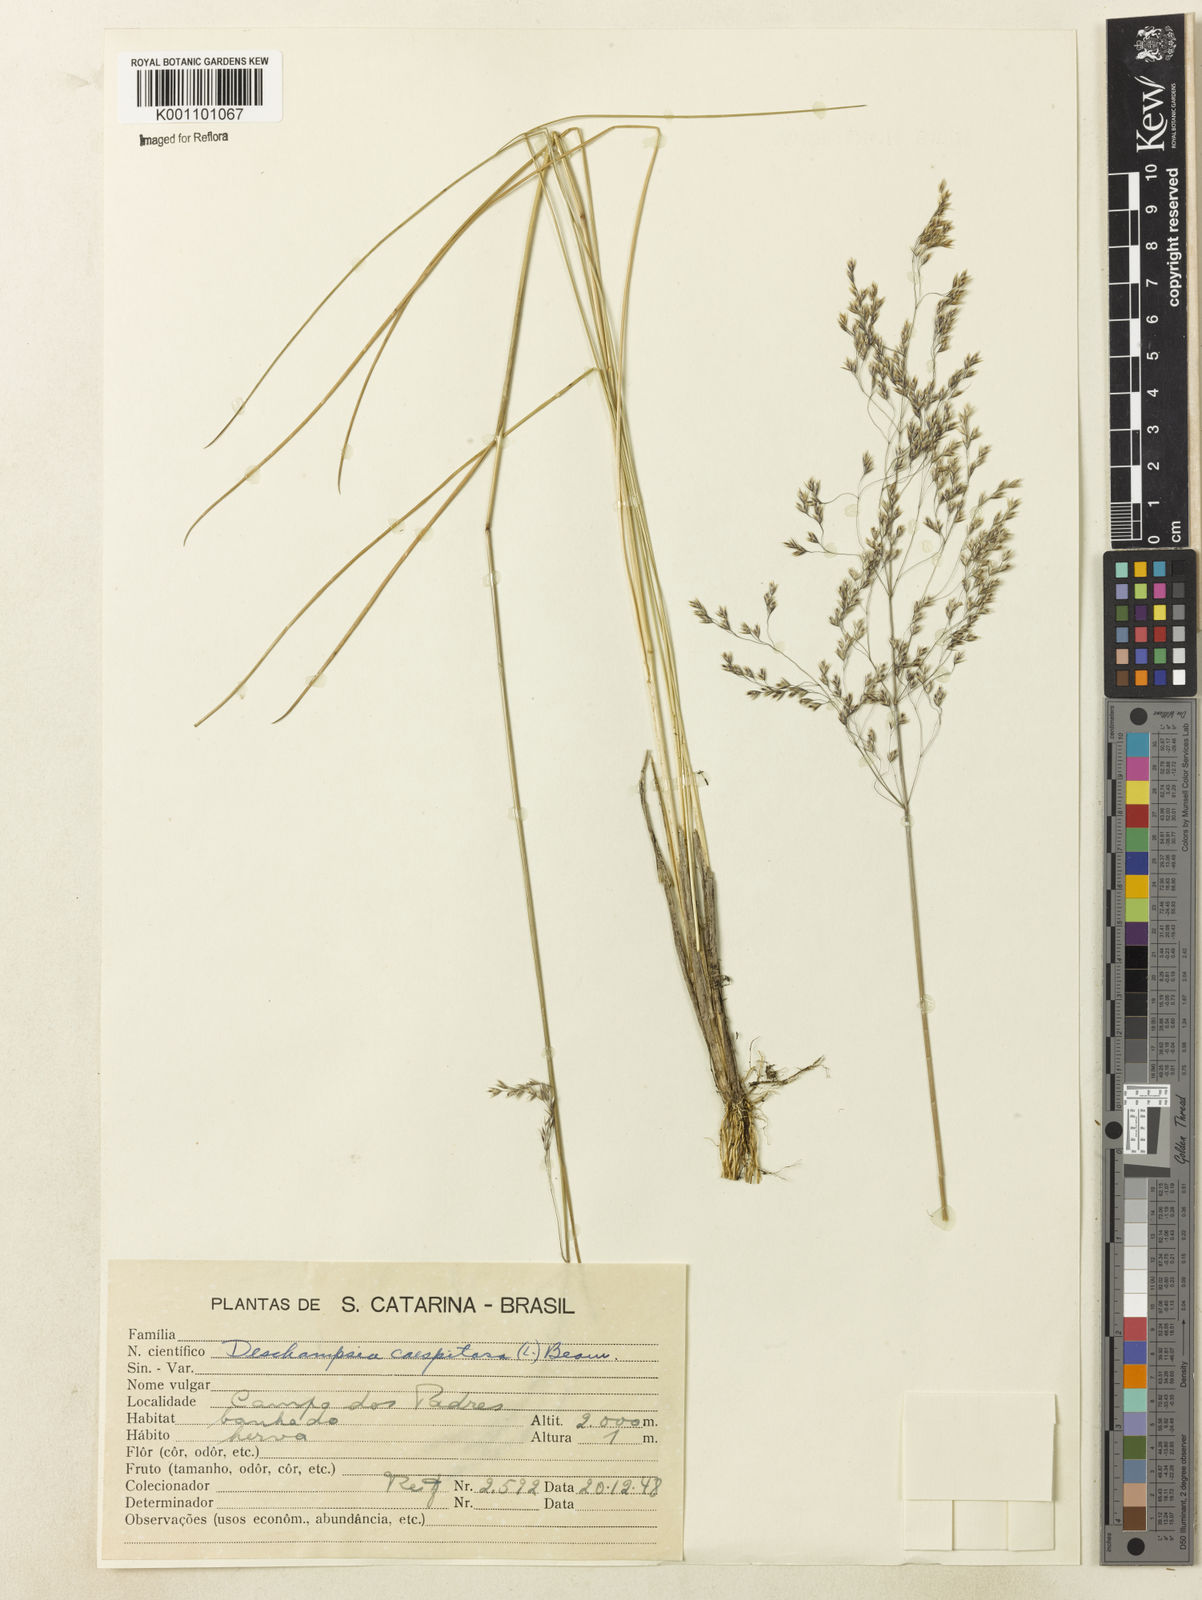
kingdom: Plantae
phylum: Tracheophyta
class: Liliopsida
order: Poales
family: Poaceae
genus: Deschampsia
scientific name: Deschampsia
